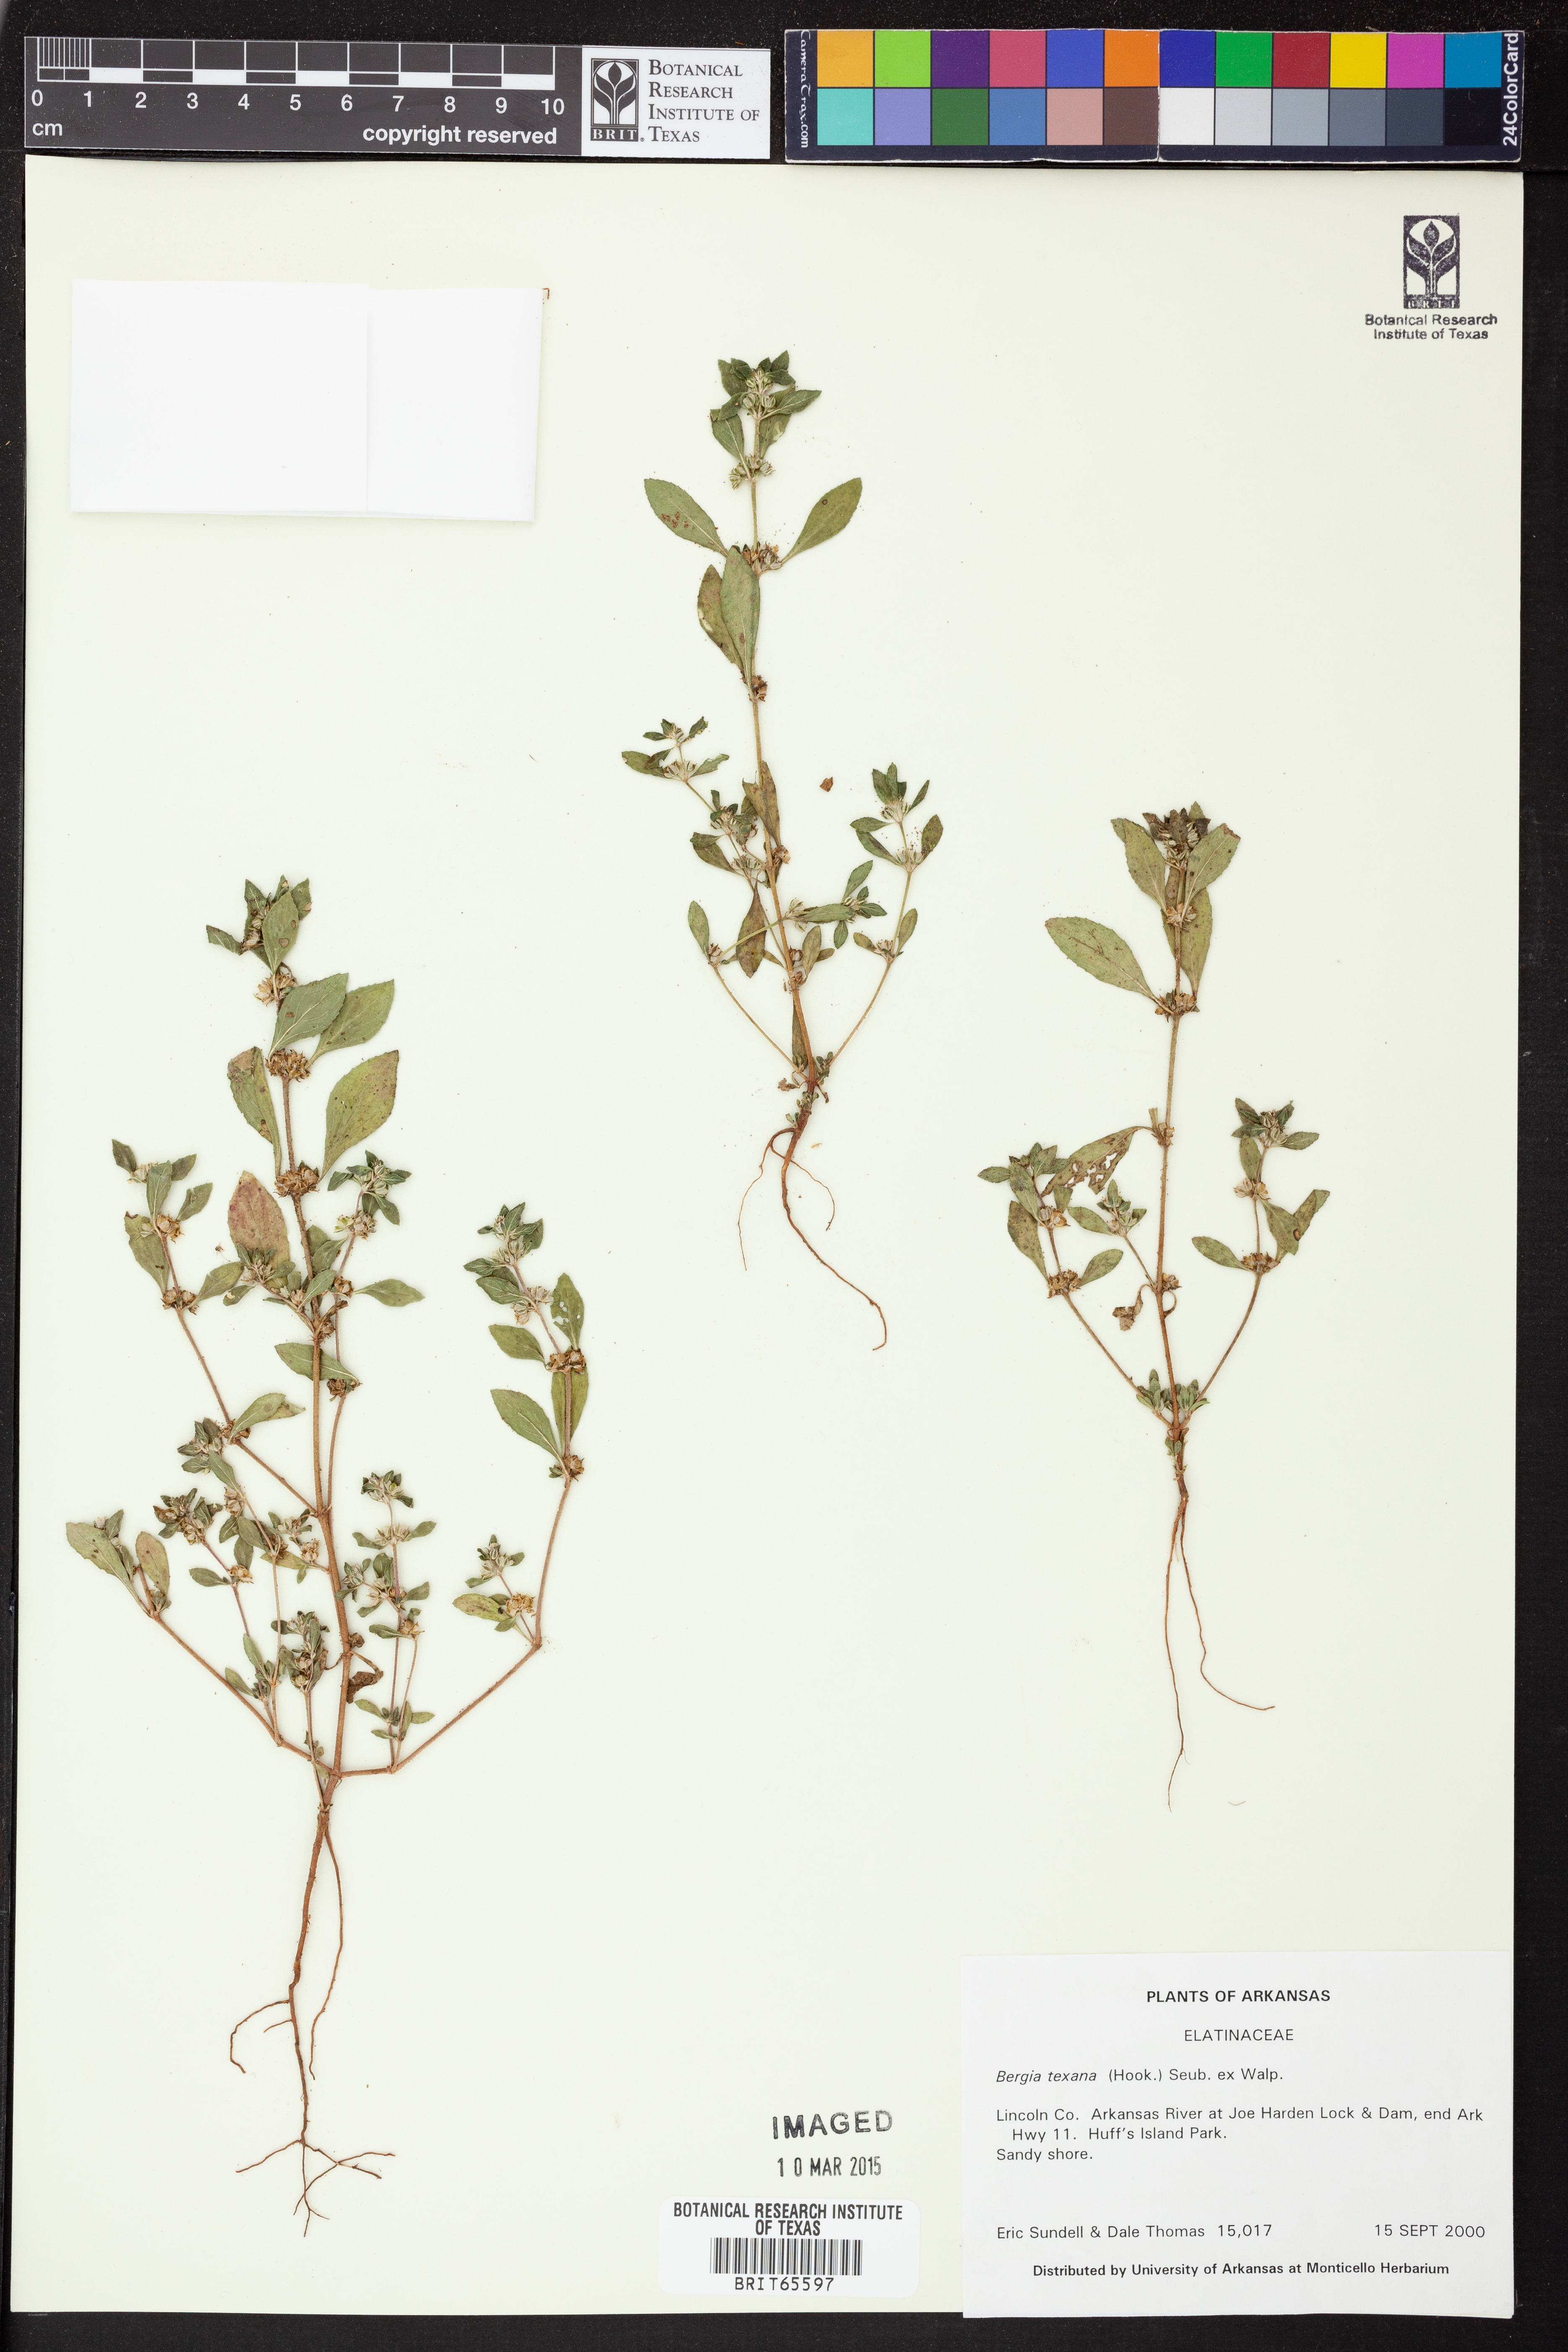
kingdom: Plantae
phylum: Tracheophyta
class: Magnoliopsida
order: Malpighiales
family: Elatinaceae
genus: Bergia
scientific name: Bergia
